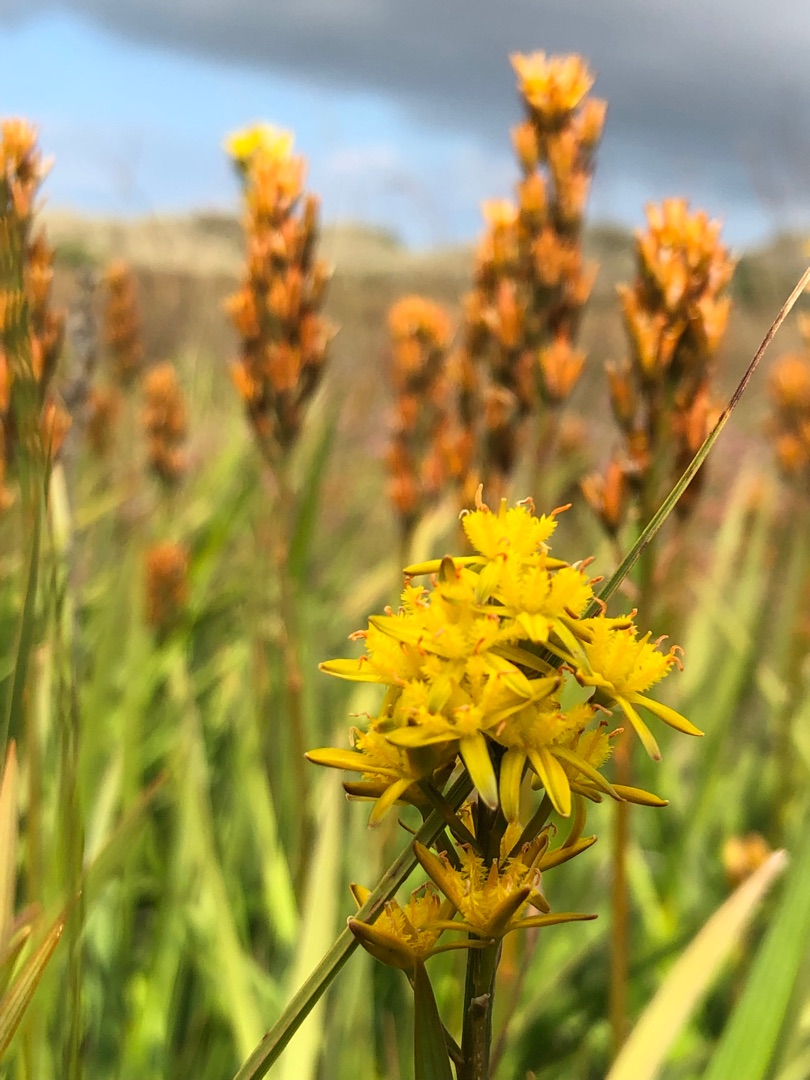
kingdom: Plantae
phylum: Tracheophyta
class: Liliopsida
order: Dioscoreales
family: Nartheciaceae
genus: Narthecium
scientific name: Narthecium ossifragum
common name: Benbræk
